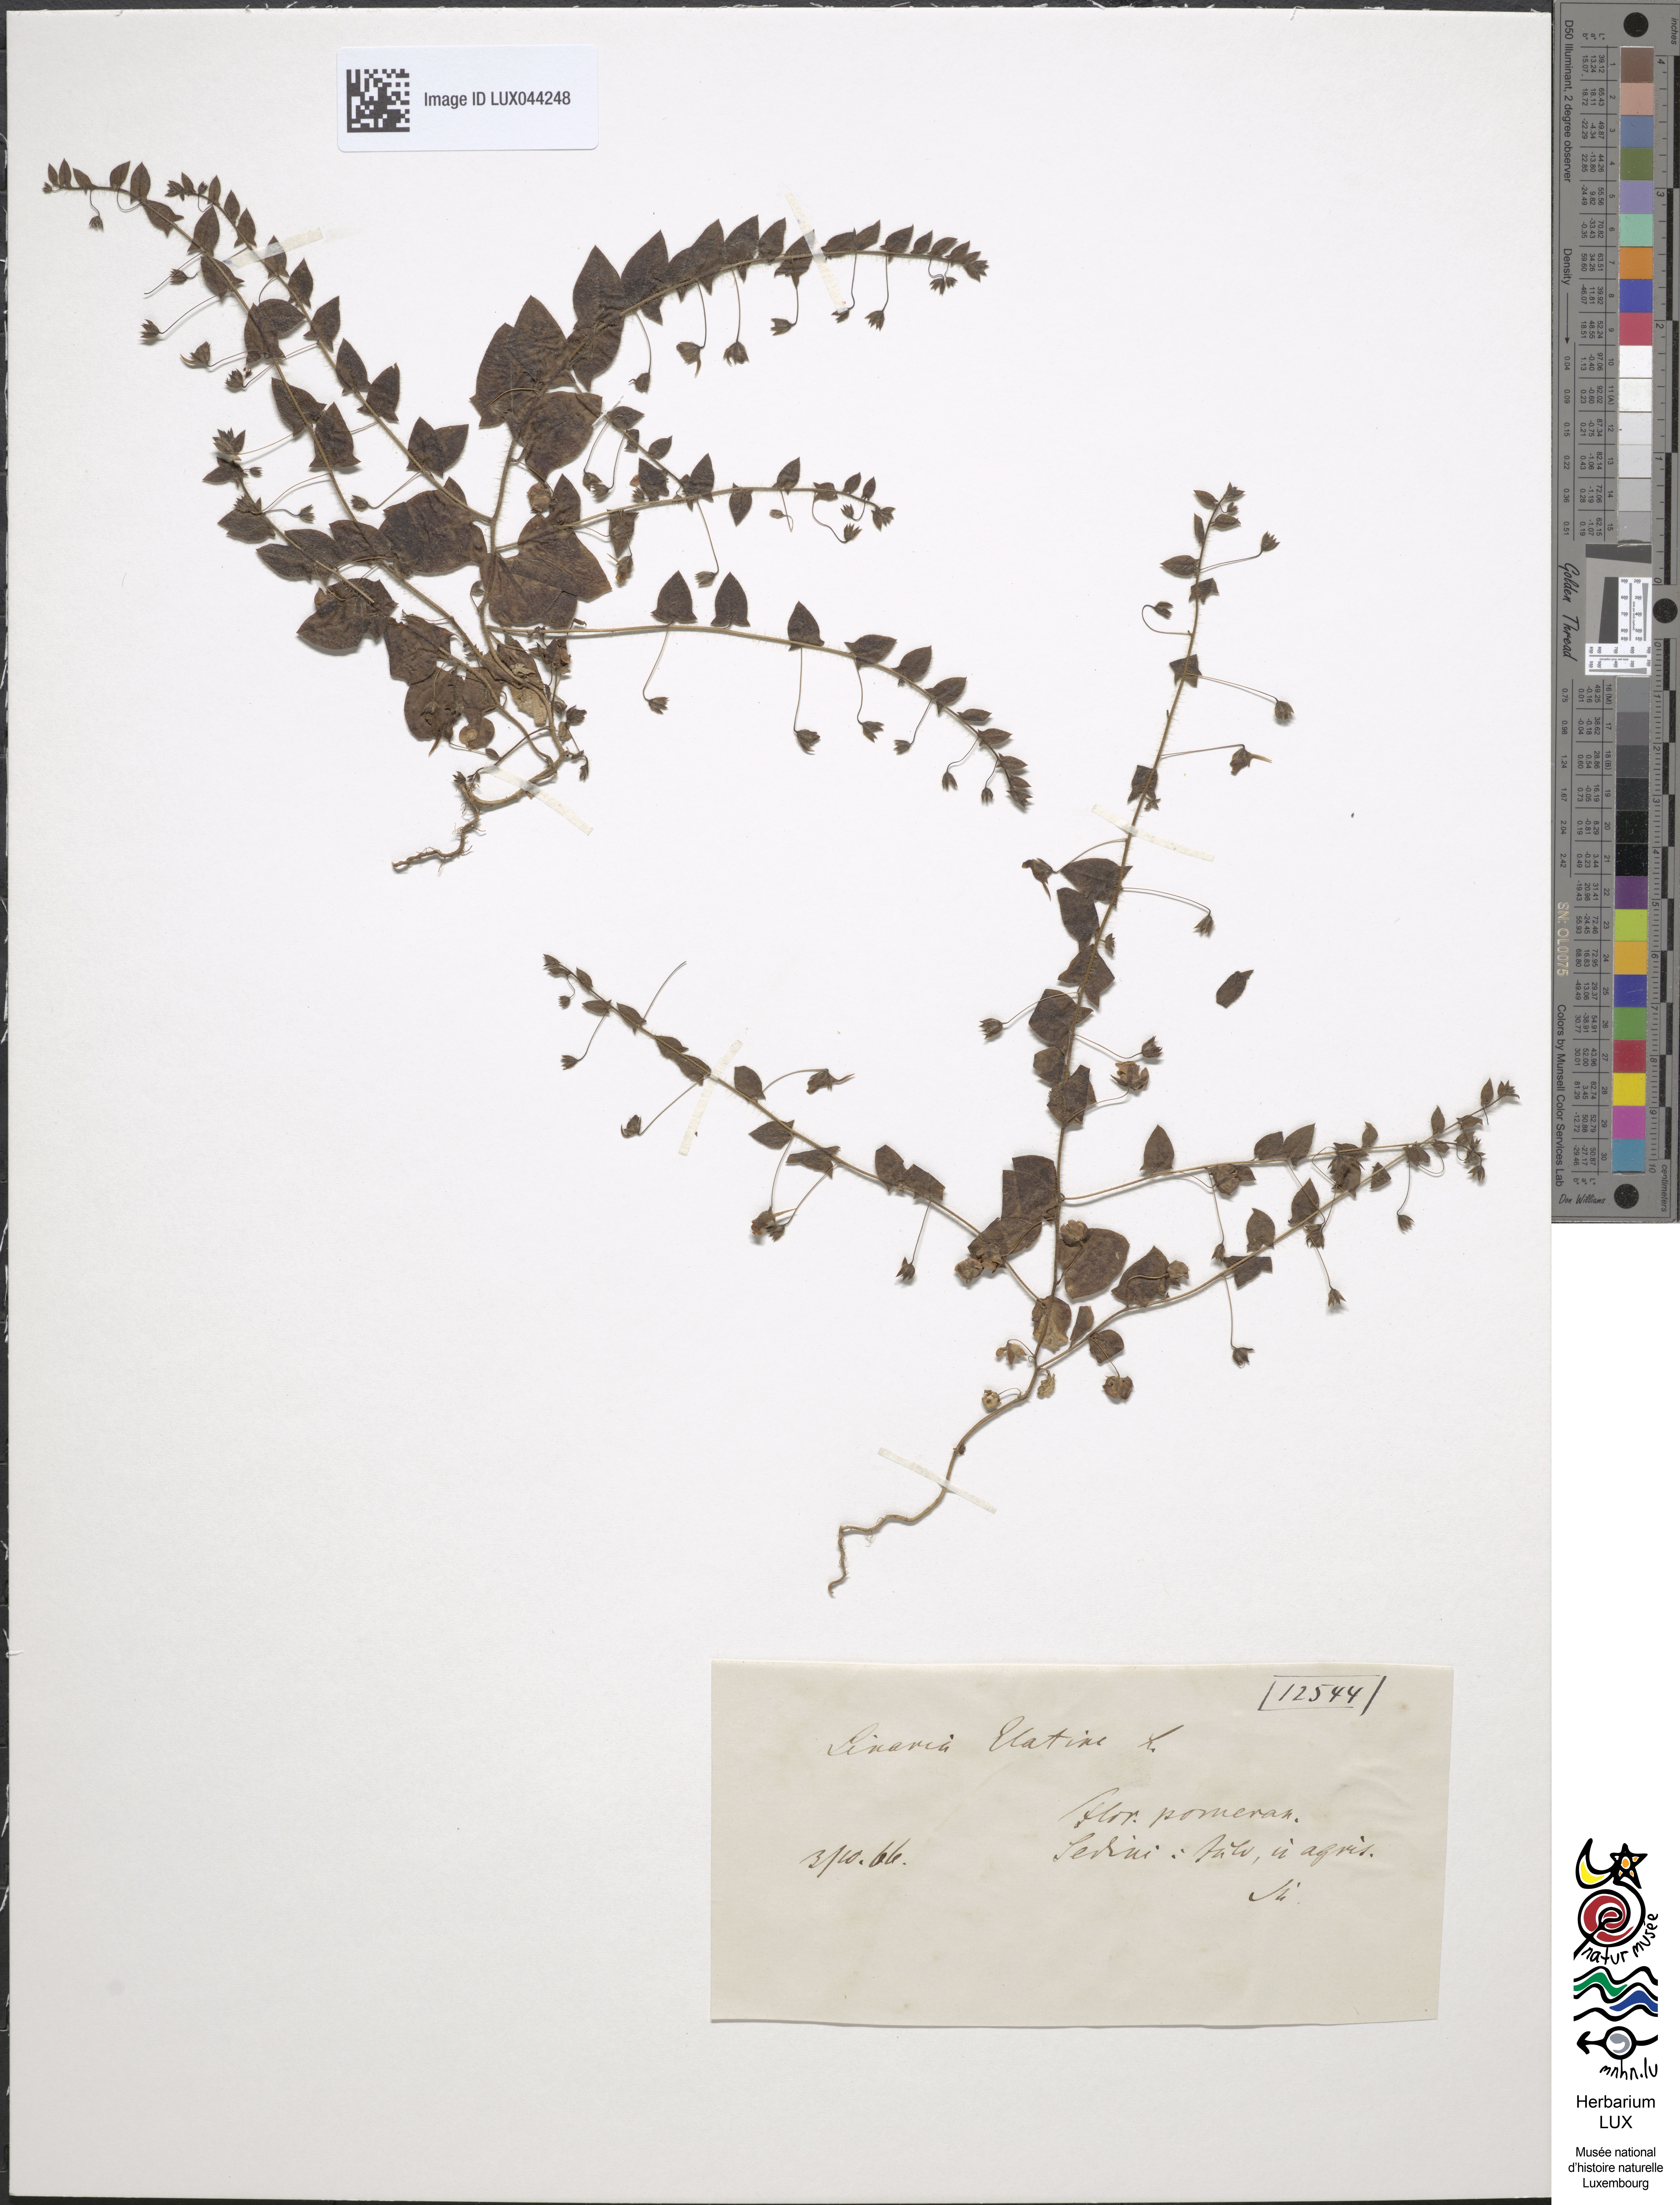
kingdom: Plantae
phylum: Tracheophyta
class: Magnoliopsida
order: Lamiales
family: Plantaginaceae
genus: Kickxia
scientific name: Kickxia elatine
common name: Sharp-leaved fluellen
